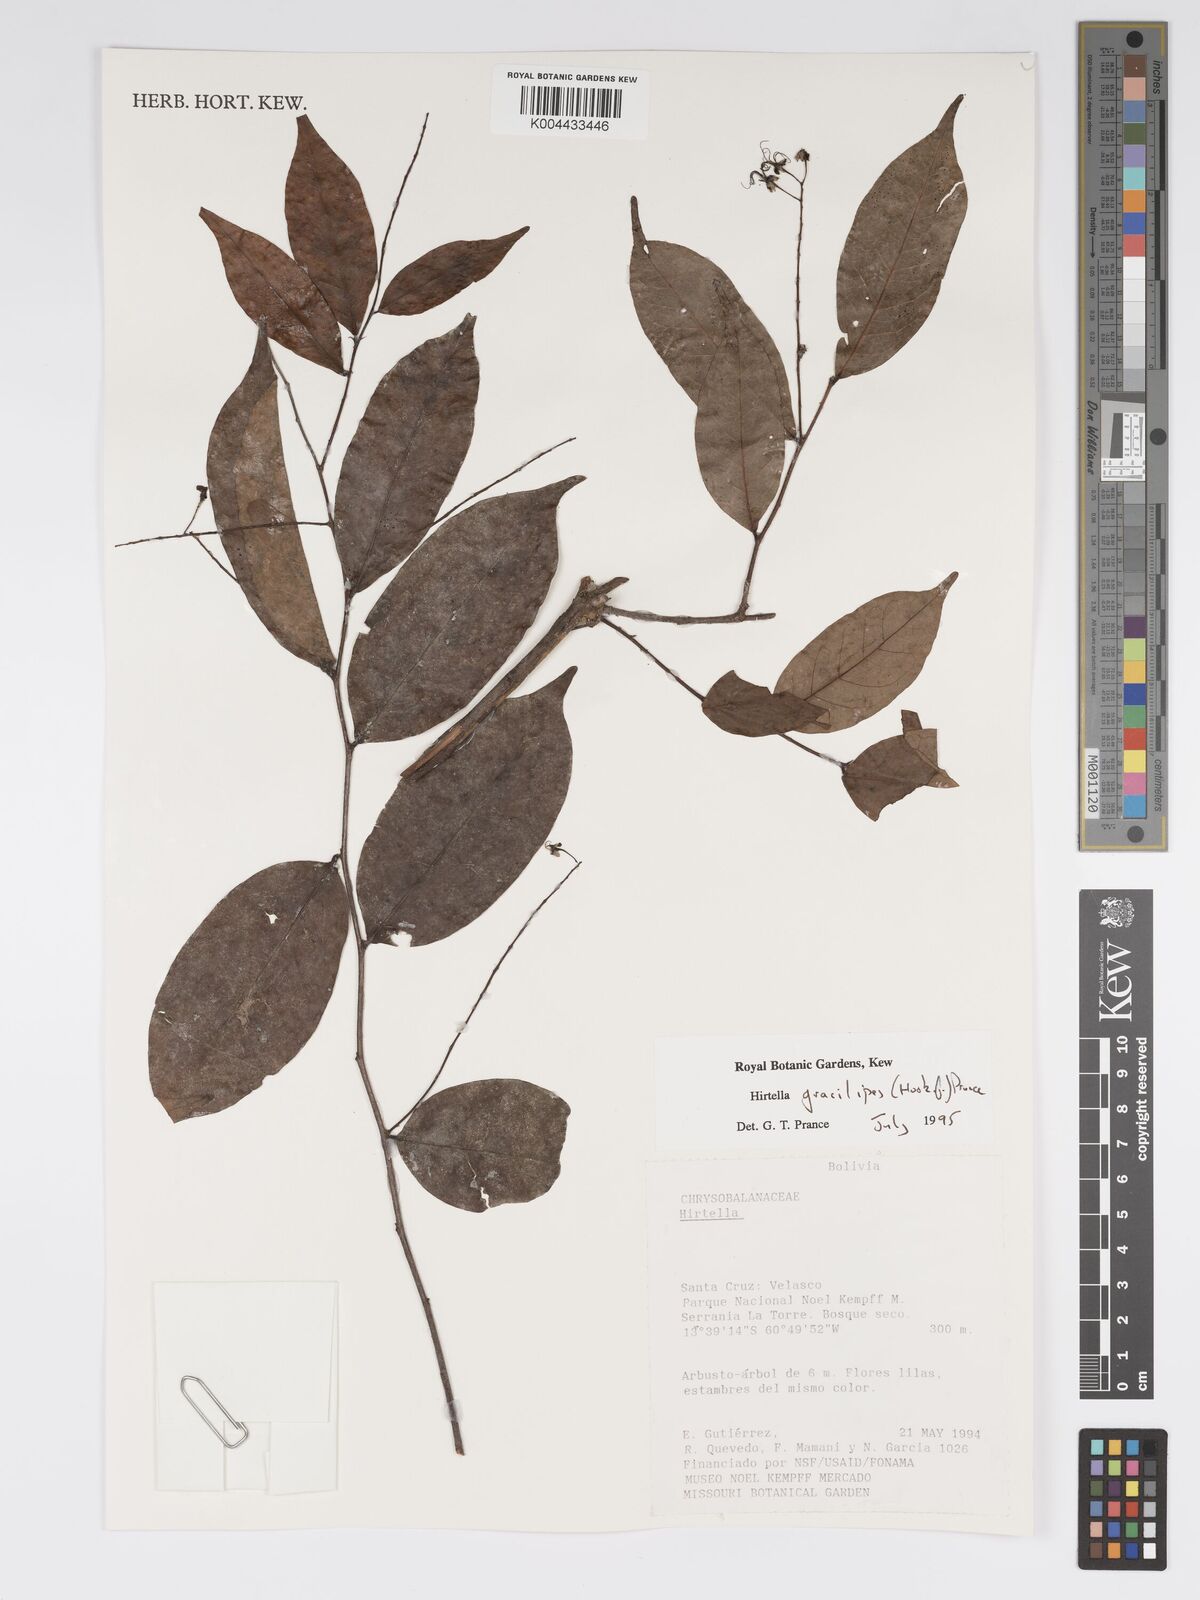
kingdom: Plantae
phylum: Tracheophyta
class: Magnoliopsida
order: Malpighiales
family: Chrysobalanaceae
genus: Hirtella
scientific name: Hirtella gracilipes
